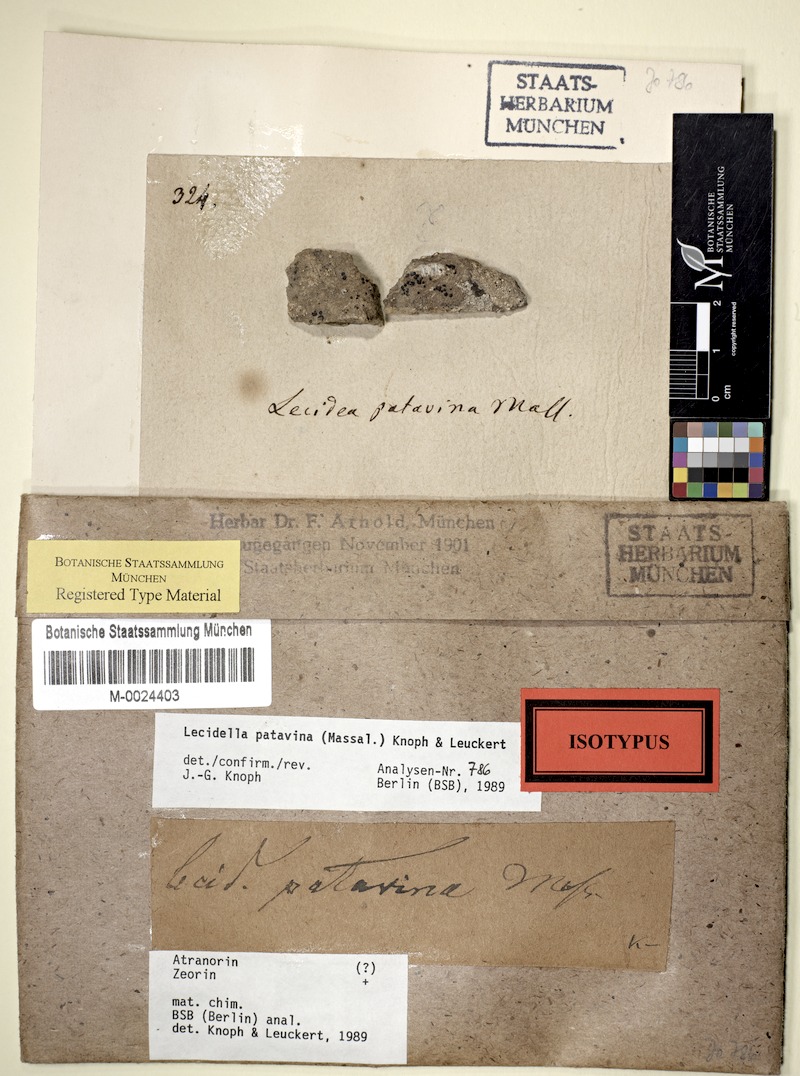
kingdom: Fungi
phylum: Ascomycota
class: Lecanoromycetes
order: Lecanorales
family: Lecanoraceae
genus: Lecidella
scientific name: Lecidella patavina
